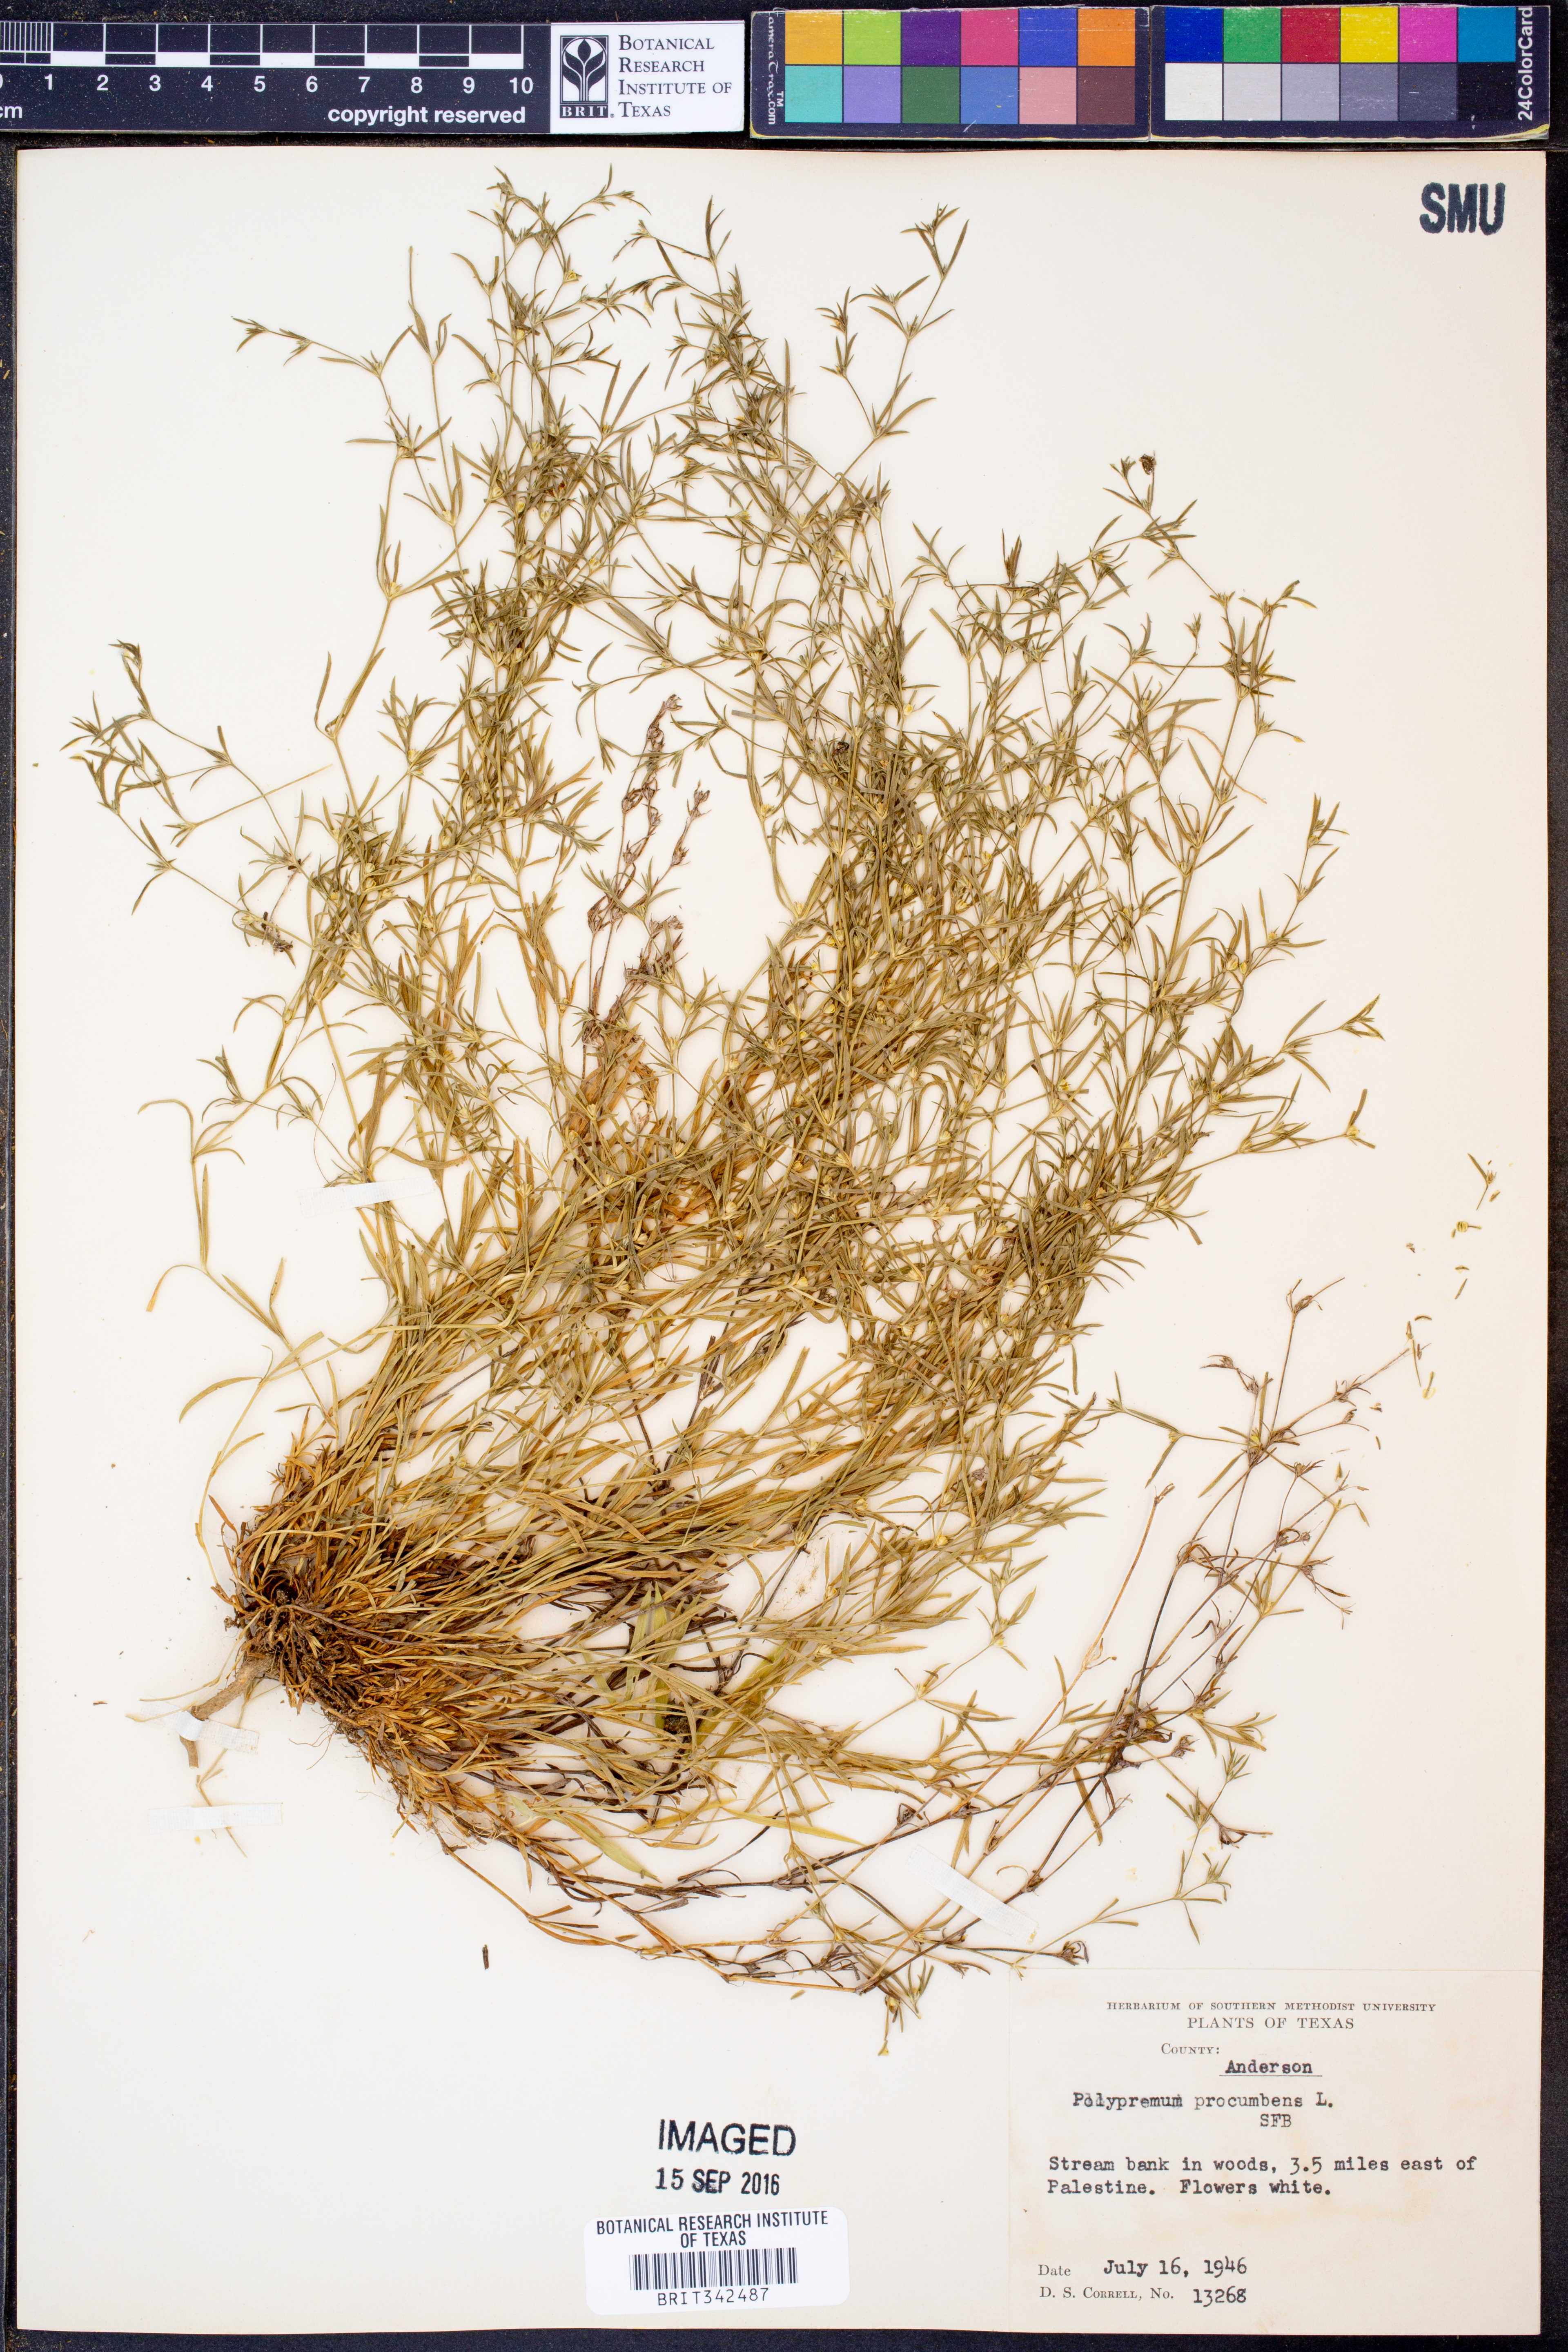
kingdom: Plantae
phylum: Tracheophyta
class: Magnoliopsida
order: Lamiales
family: Tetrachondraceae
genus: Polypremum
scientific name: Polypremum procumbens
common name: Juniper-leaf
